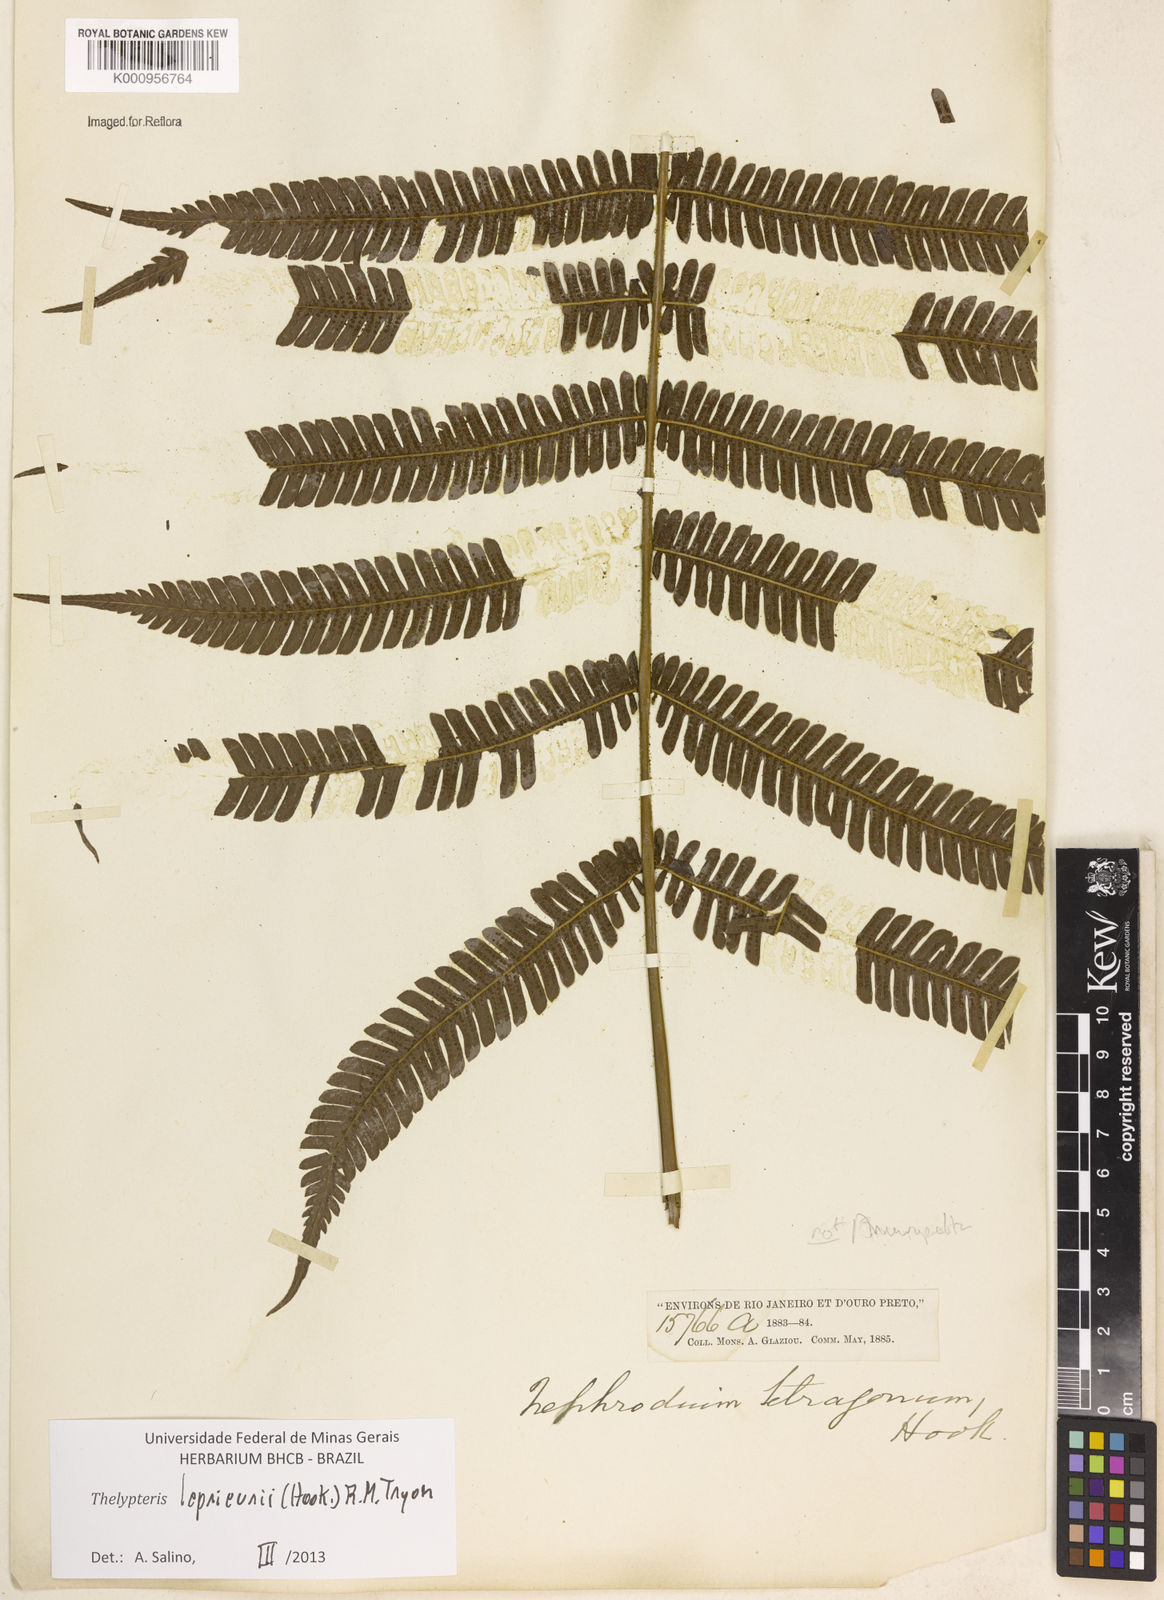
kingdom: Plantae
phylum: Tracheophyta
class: Polypodiopsida
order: Polypodiales
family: Thelypteridaceae
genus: Steiropteris
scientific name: Steiropteris leprieurii
